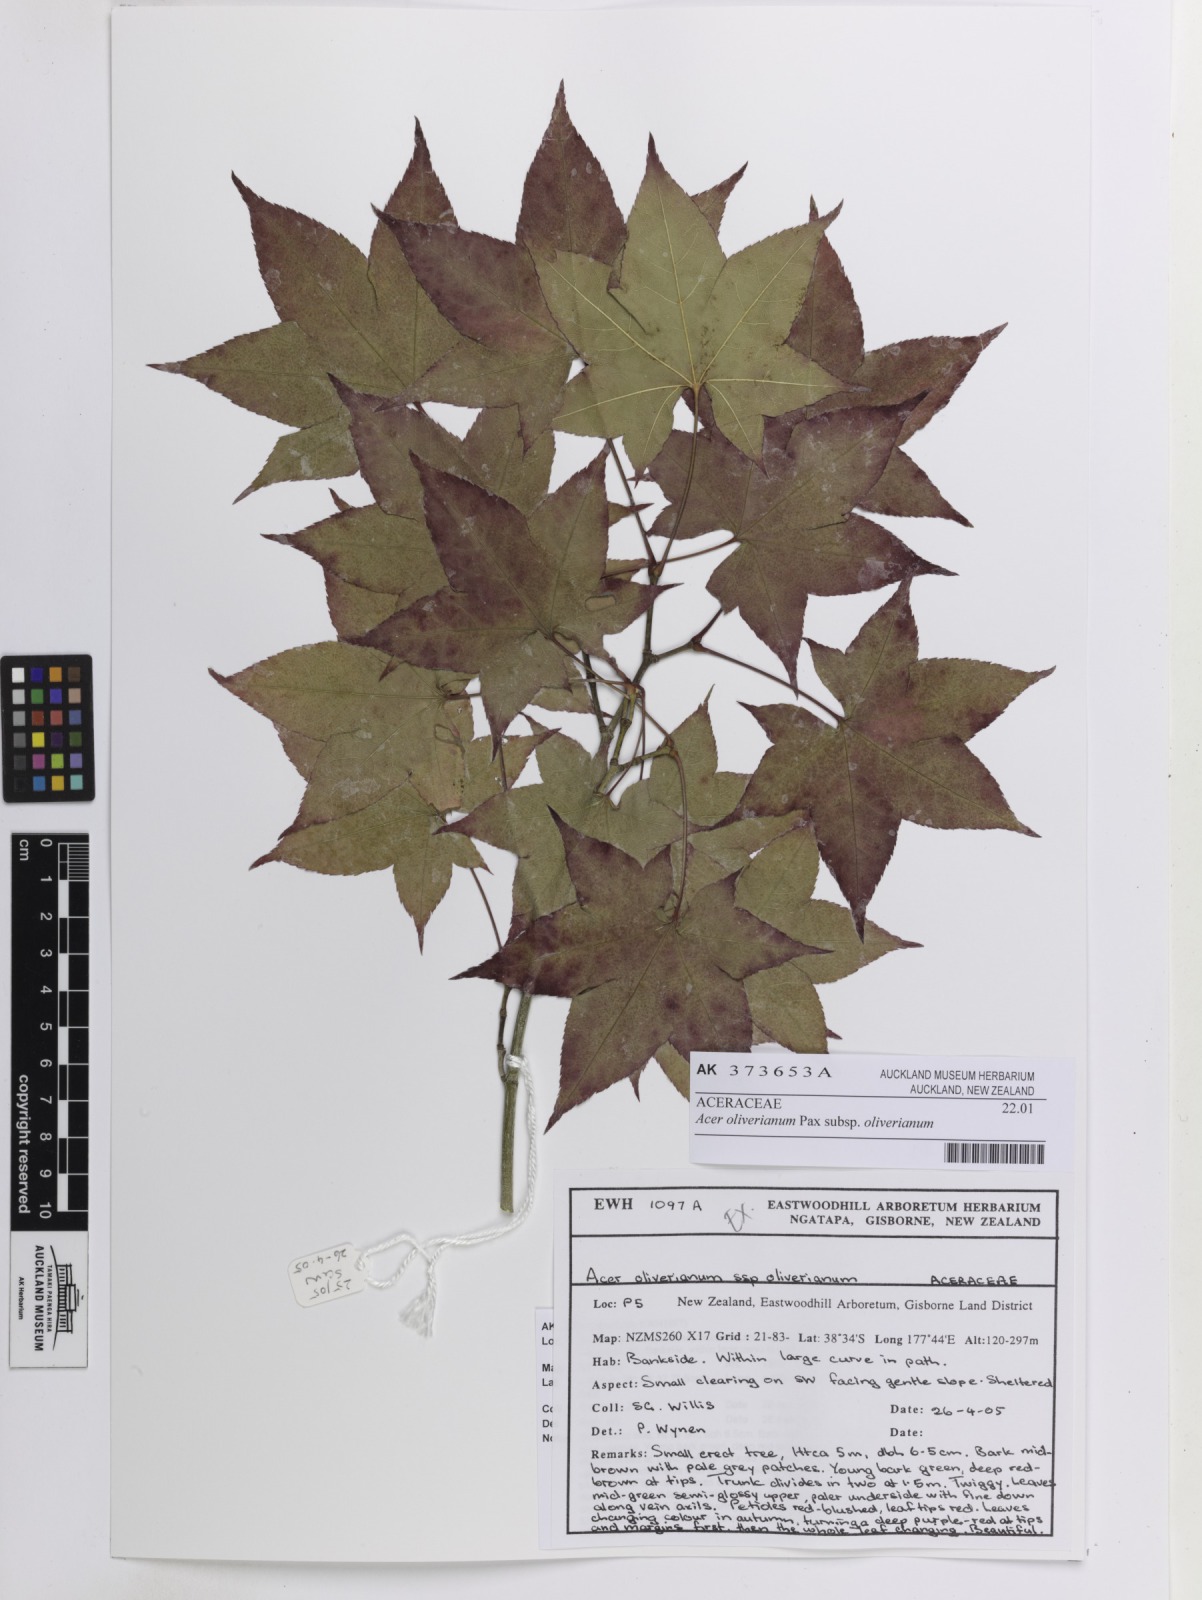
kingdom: Plantae
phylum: Tracheophyta
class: Magnoliopsida
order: Sapindales
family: Sapindaceae
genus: Acer
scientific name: Acer oliverianum
